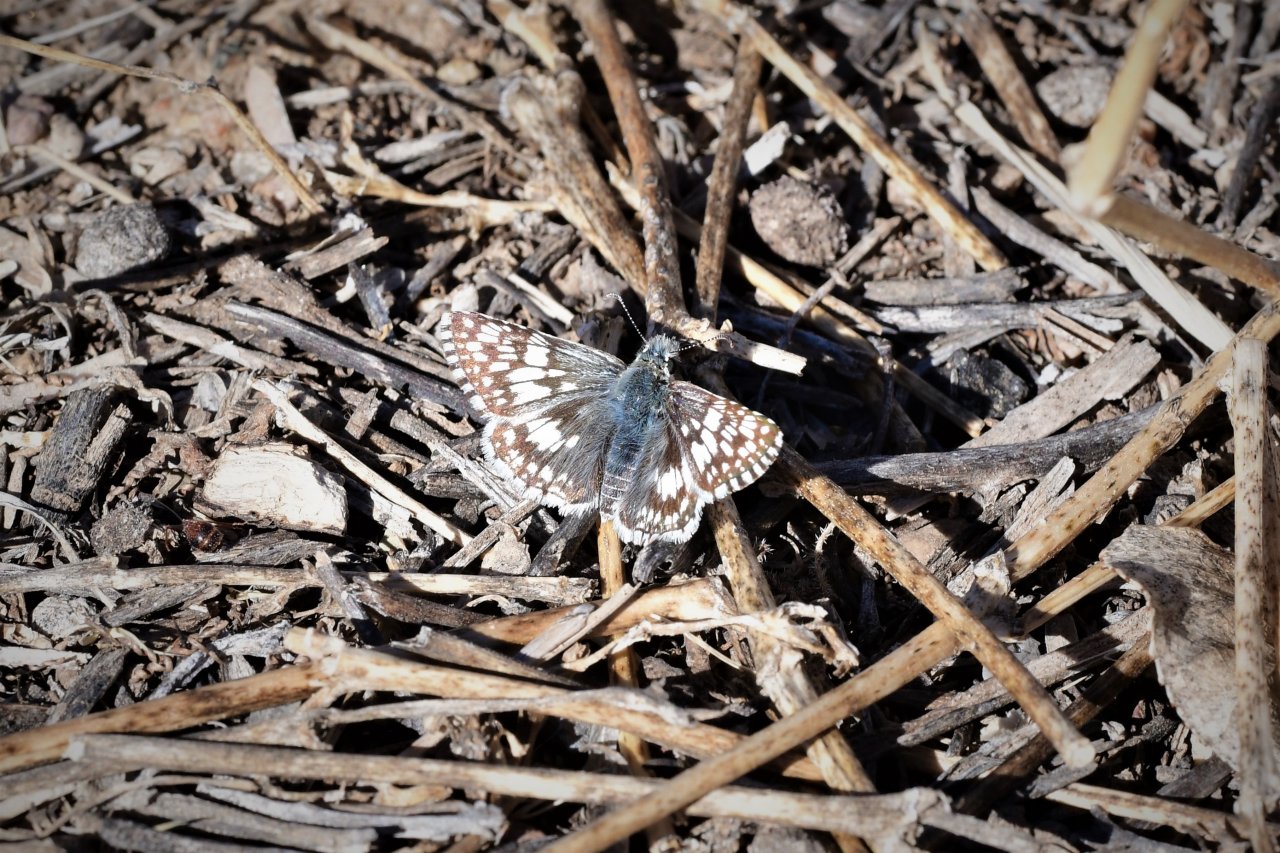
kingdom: Animalia
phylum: Arthropoda
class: Insecta
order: Lepidoptera
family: Hesperiidae
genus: Pyrgus
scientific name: Pyrgus
